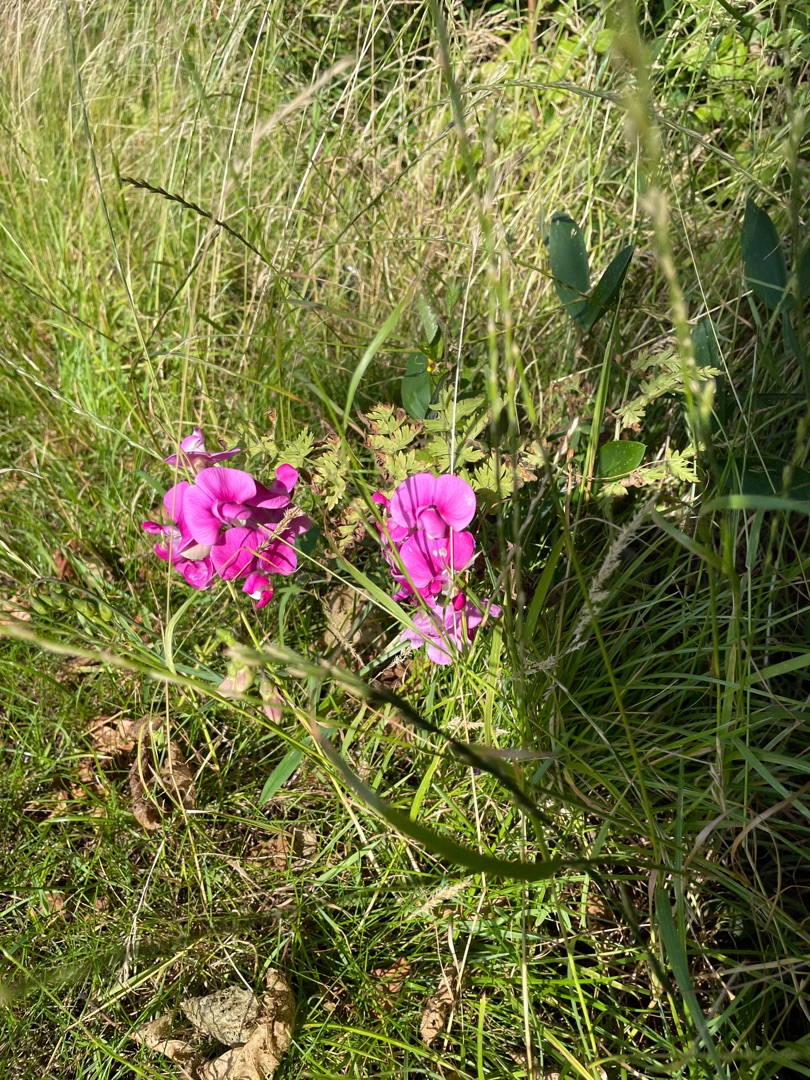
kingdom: Plantae
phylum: Tracheophyta
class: Magnoliopsida
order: Fabales
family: Fabaceae
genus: Lathyrus
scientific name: Lathyrus latifolius
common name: Flerårig ærteblomst
